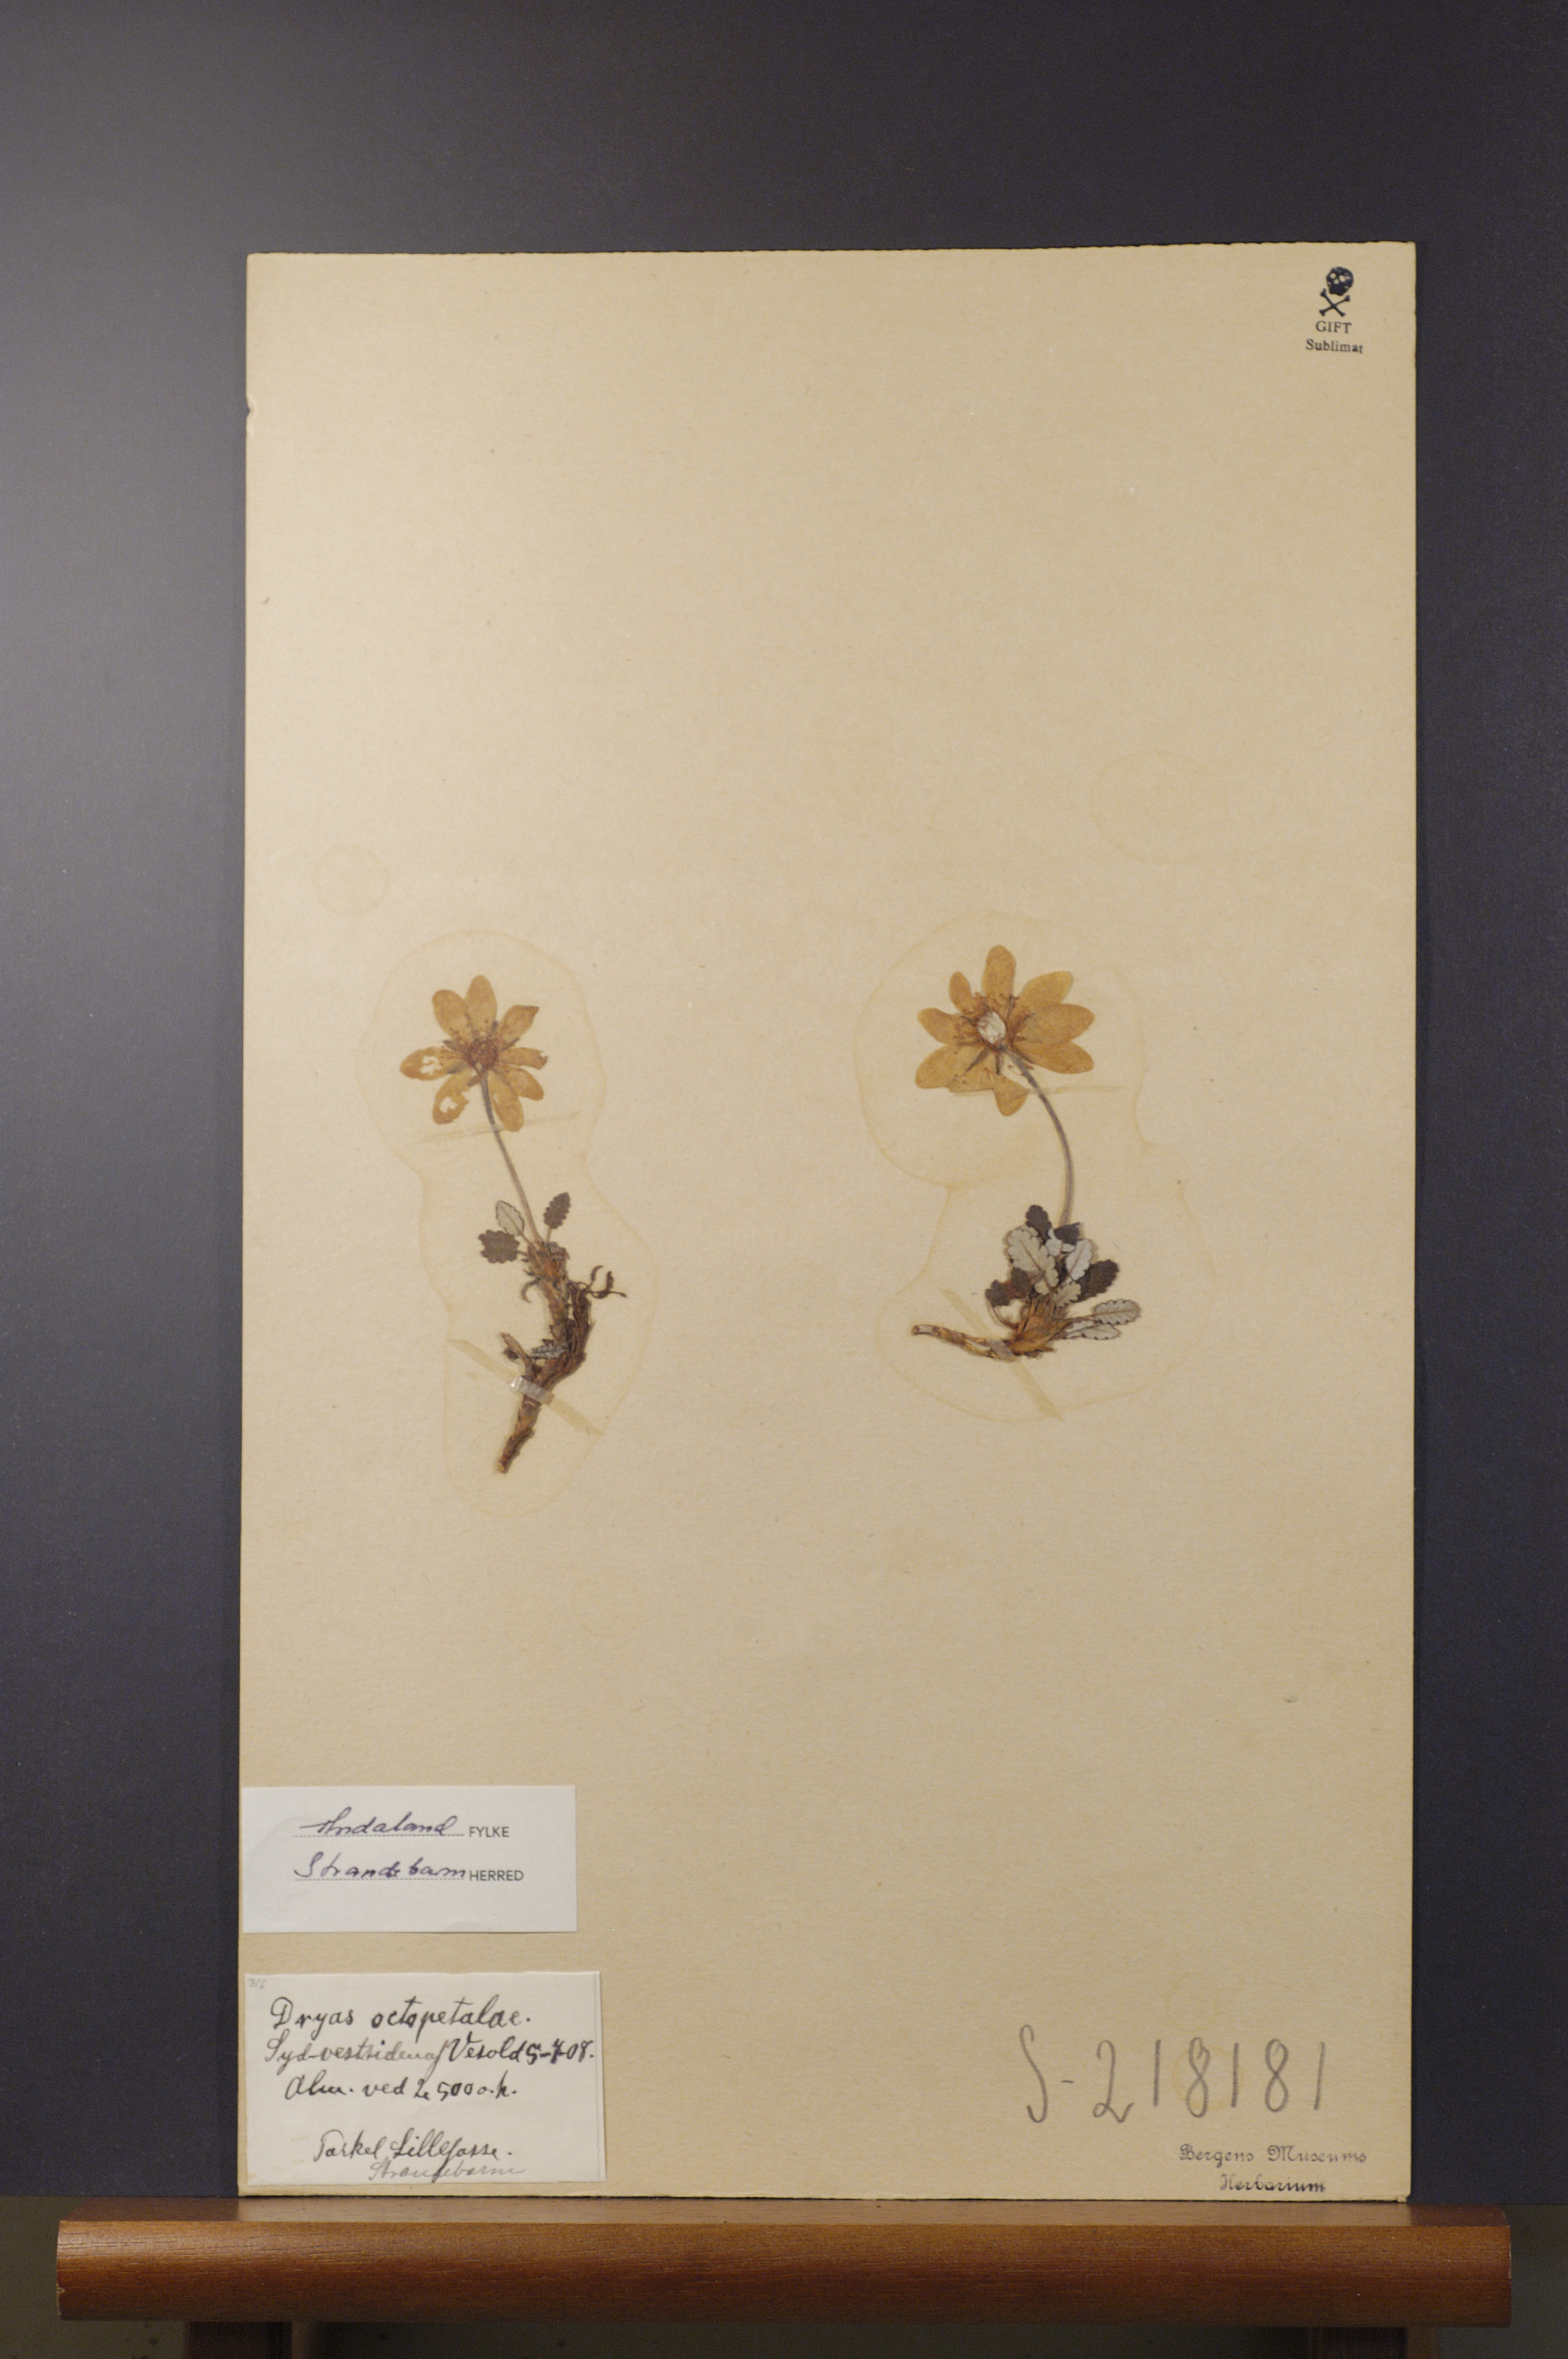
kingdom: Plantae
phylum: Tracheophyta
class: Magnoliopsida
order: Rosales
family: Rosaceae
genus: Dryas
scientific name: Dryas octopetala
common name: Eight-petal mountain-avens
